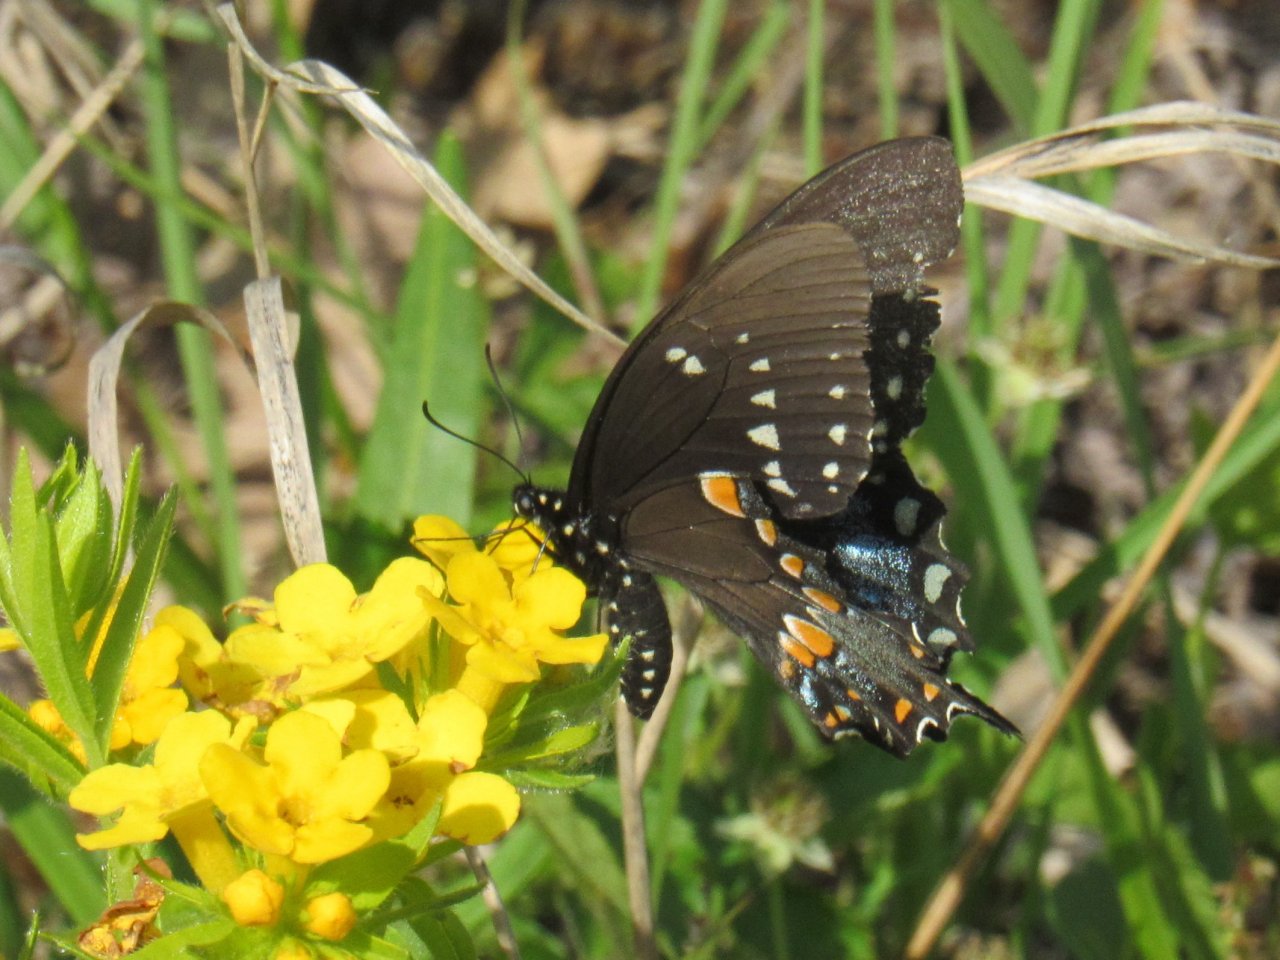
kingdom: Animalia
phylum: Arthropoda
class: Insecta
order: Lepidoptera
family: Papilionidae
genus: Pterourus
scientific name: Pterourus troilus
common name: Spicebush Swallowtail
